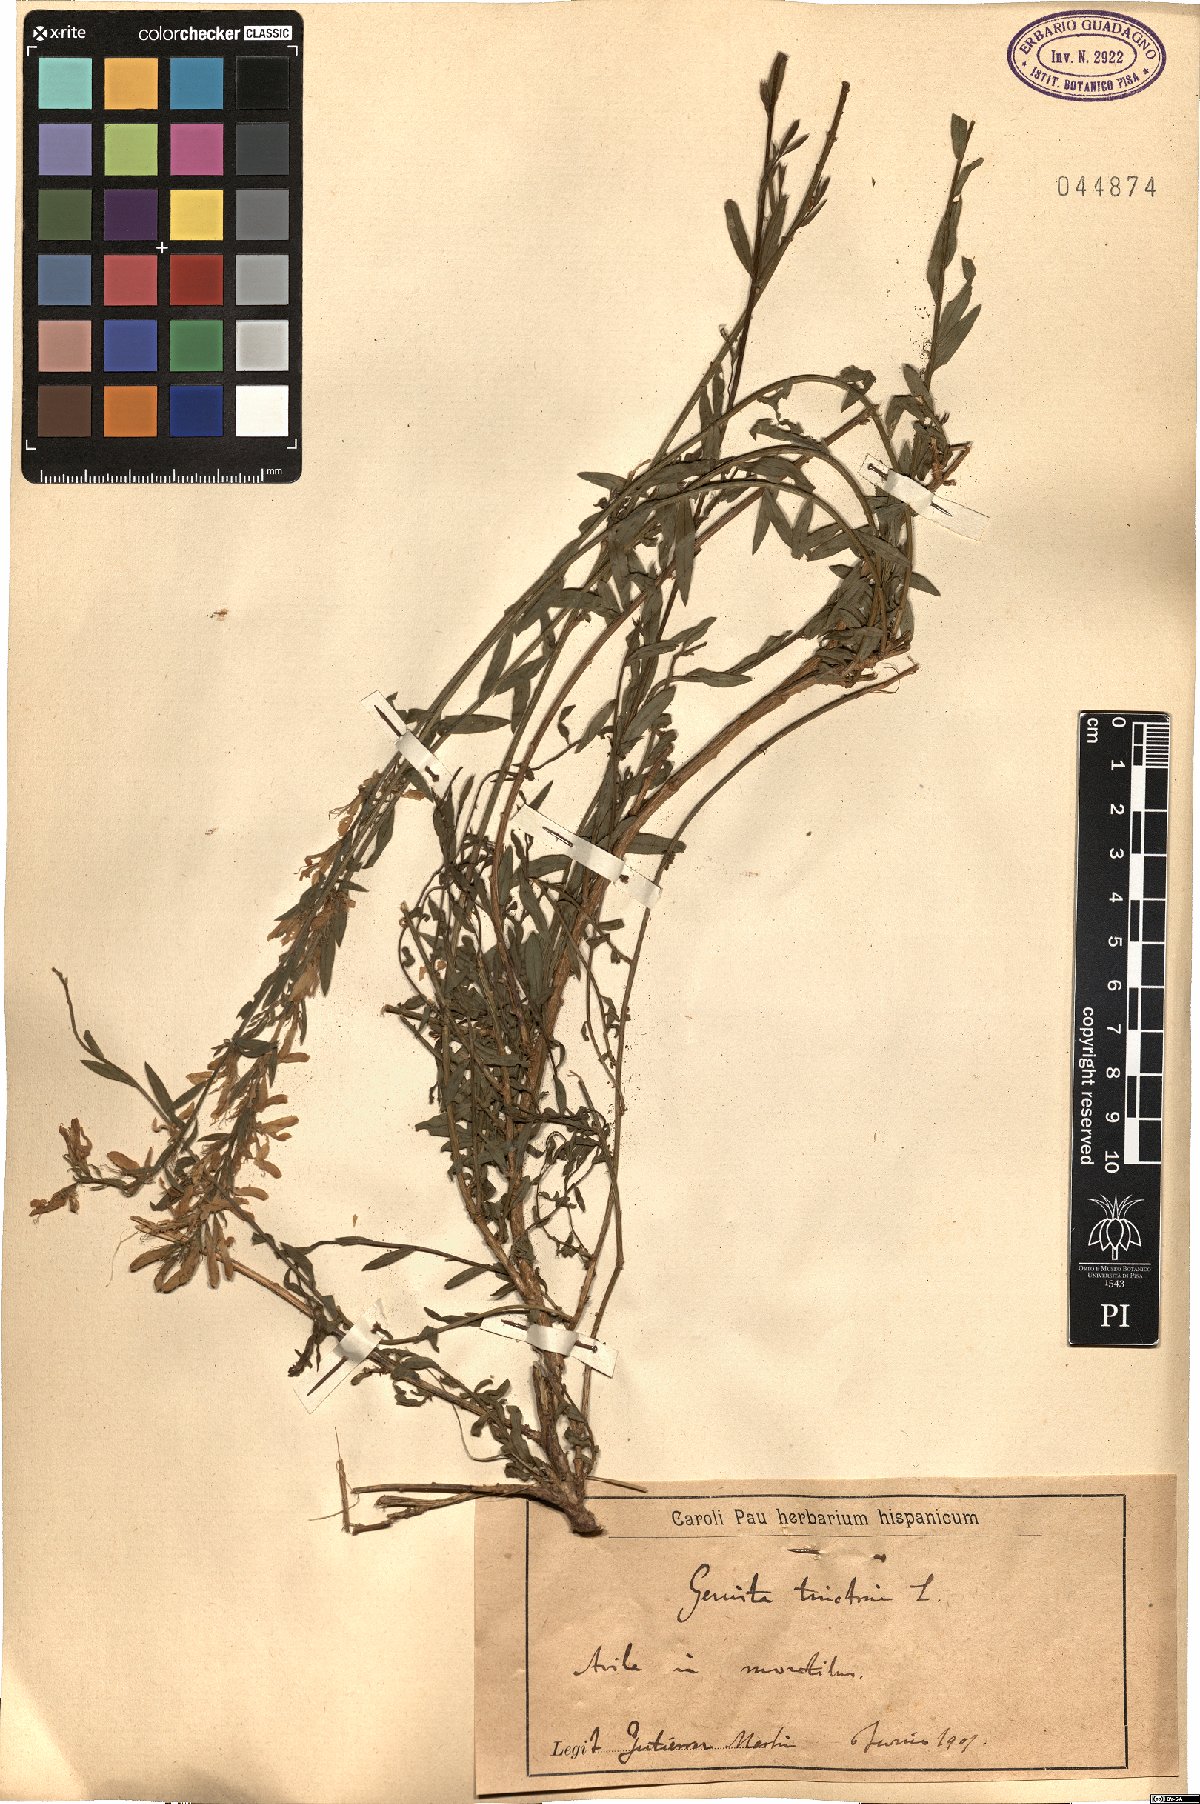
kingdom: Plantae
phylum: Tracheophyta
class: Magnoliopsida
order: Fabales
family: Fabaceae
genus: Genista
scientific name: Genista tinctoria
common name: Dyer's greenweed
